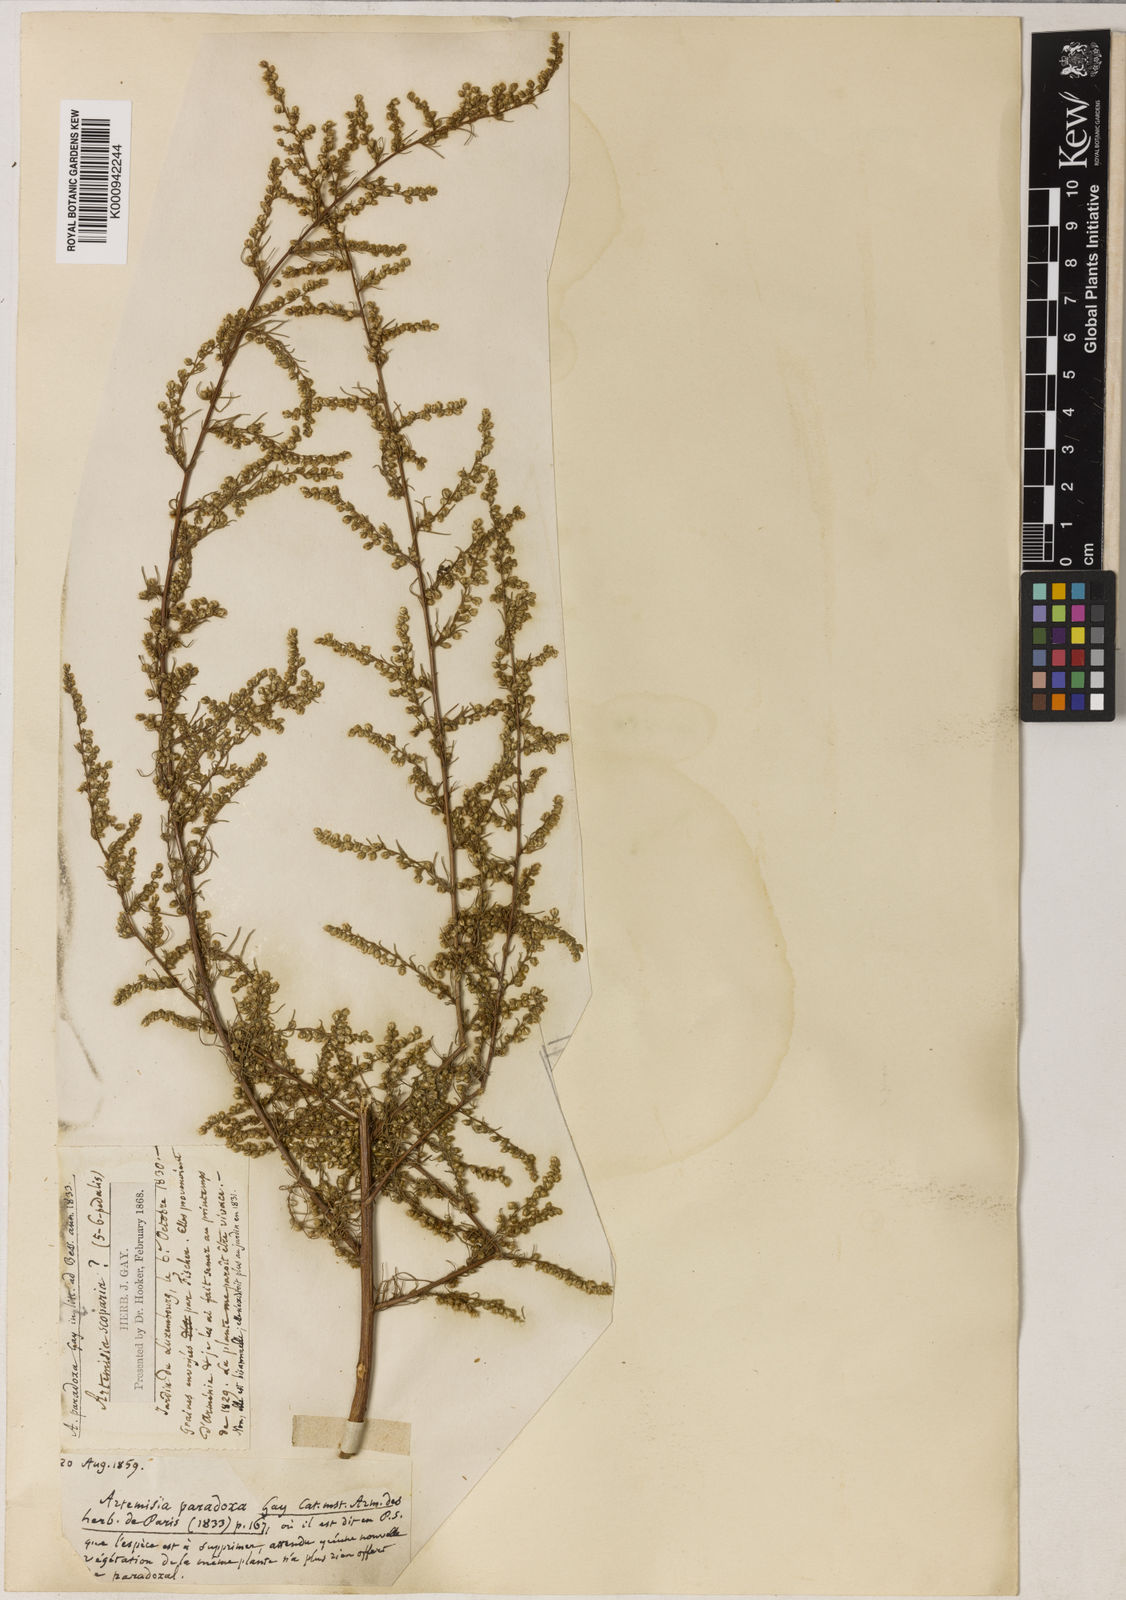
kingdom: Plantae
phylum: Tracheophyta
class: Magnoliopsida
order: Asterales
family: Asteraceae
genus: Artemisia
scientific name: Artemisia scoparia
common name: Redstem wormwood
